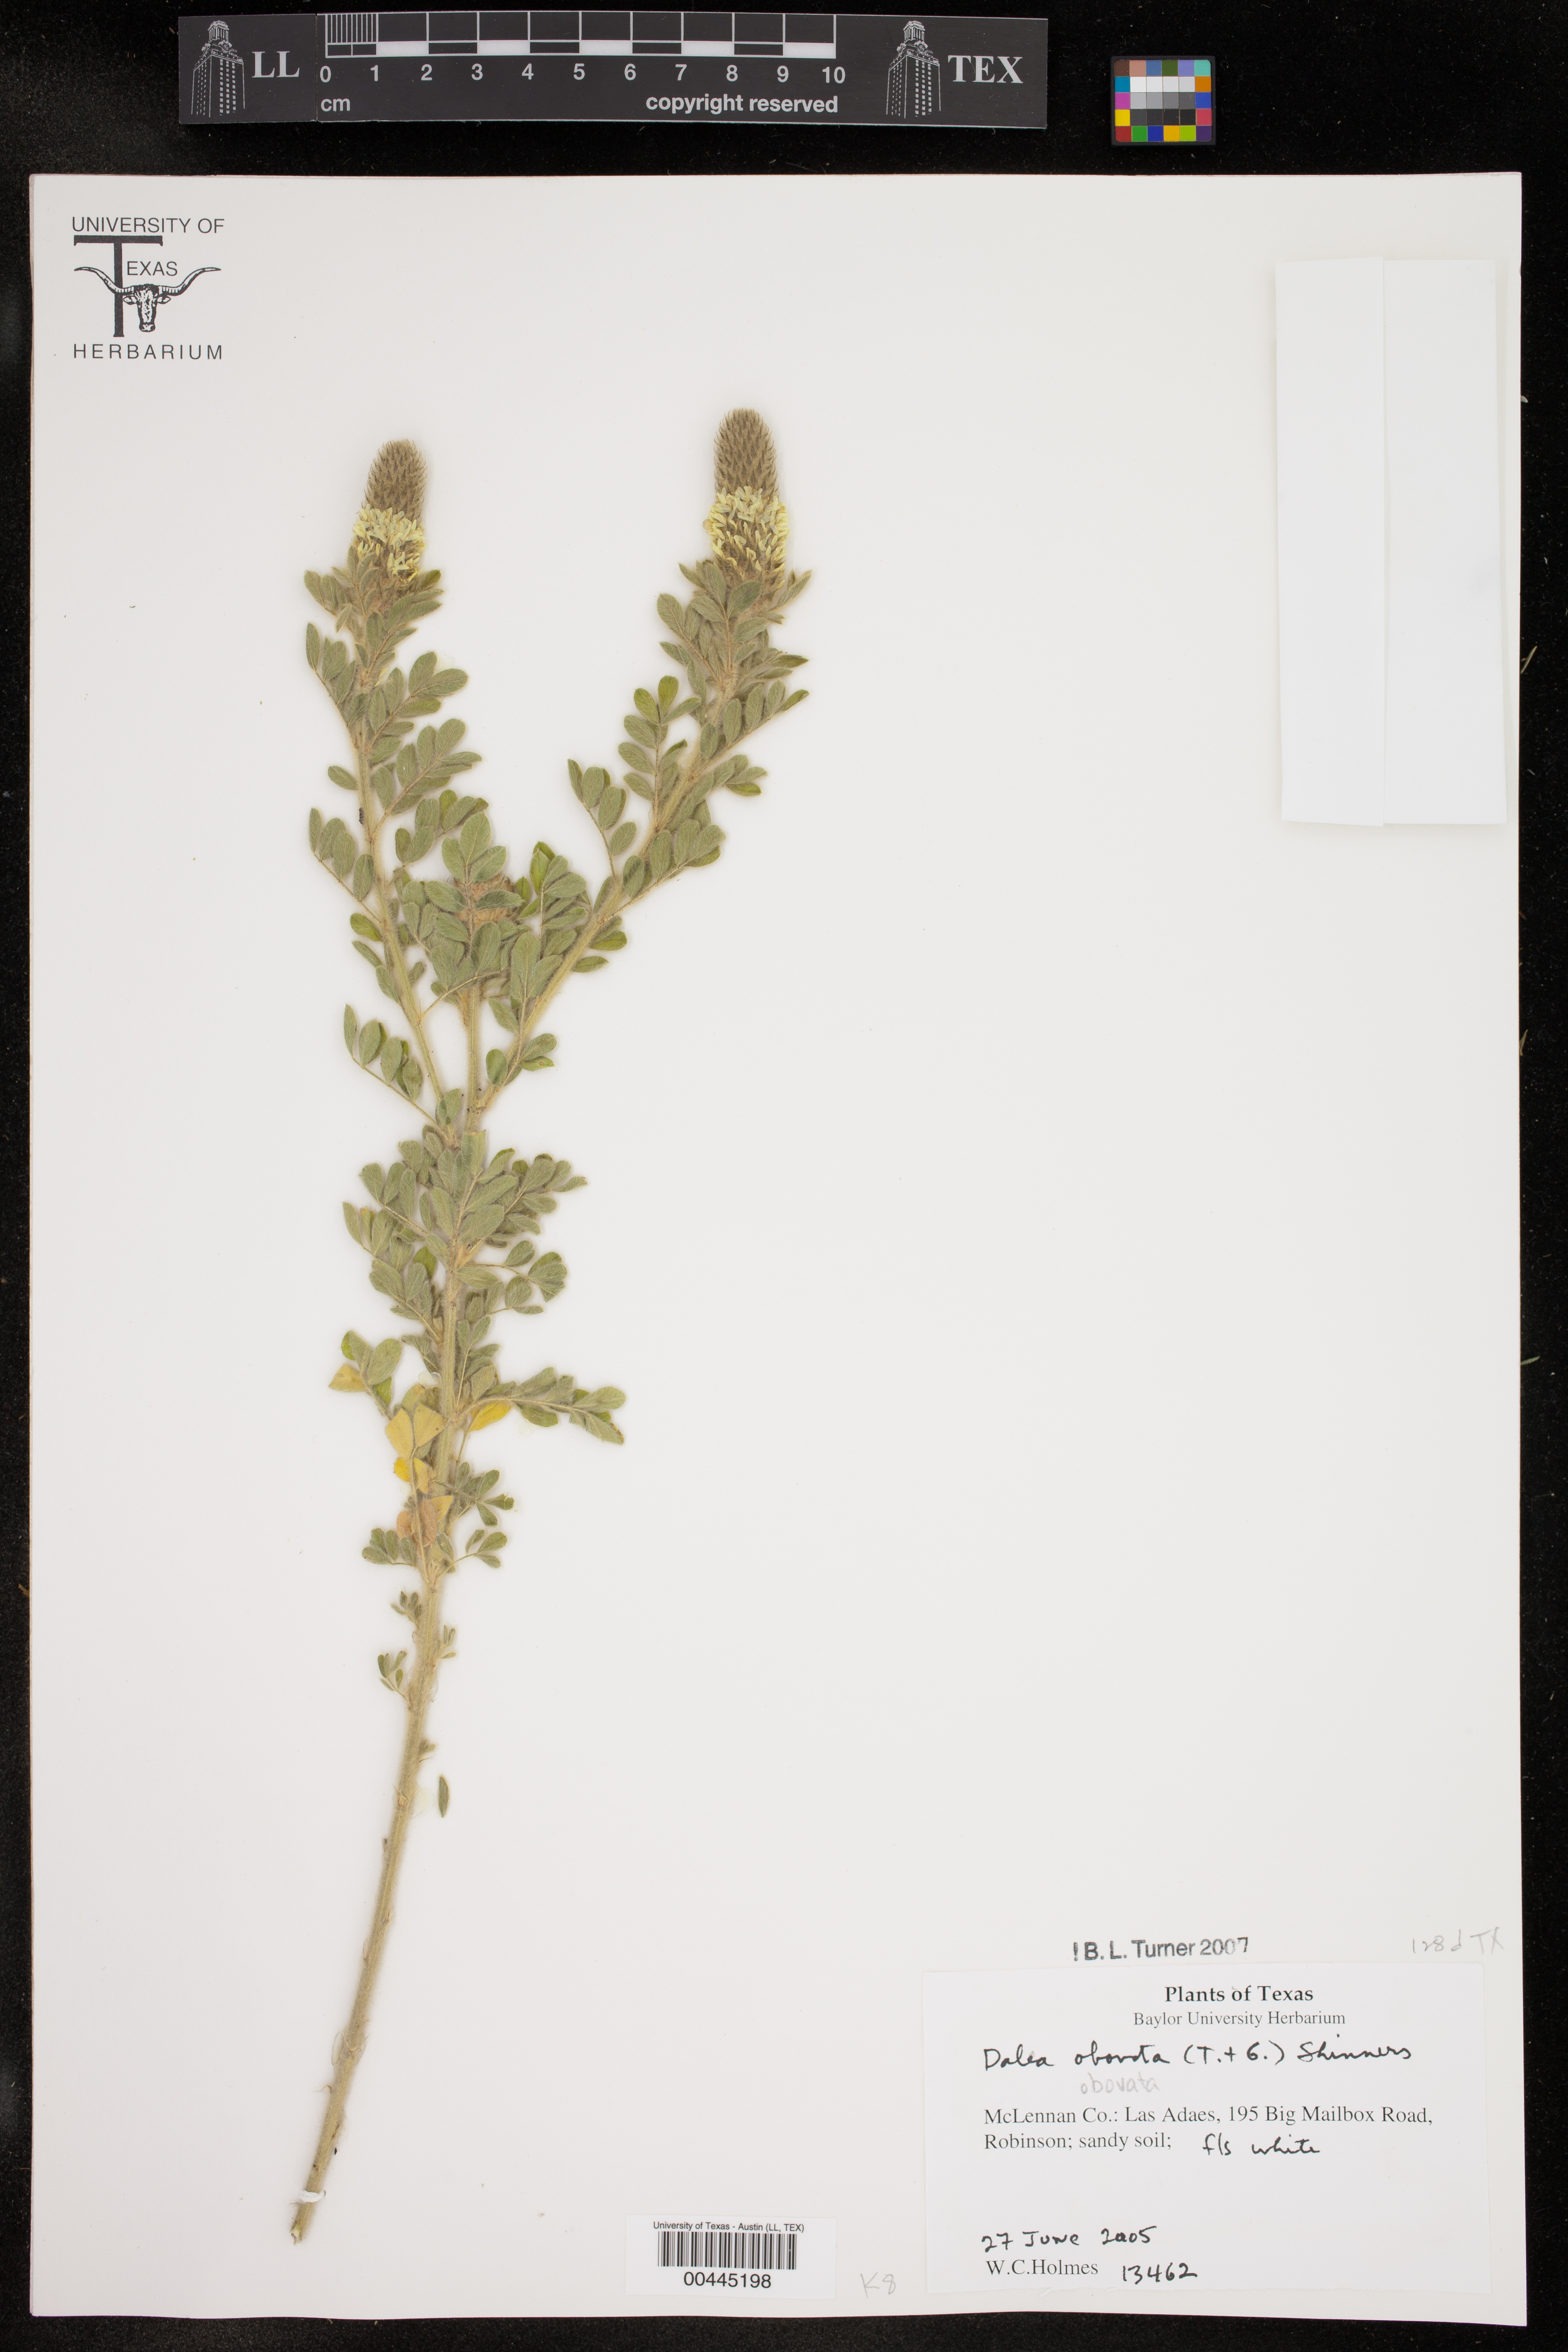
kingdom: Plantae
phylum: Tracheophyta
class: Magnoliopsida
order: Fabales
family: Fabaceae
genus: Dalea
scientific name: Dalea obovata
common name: Pussyfoot
